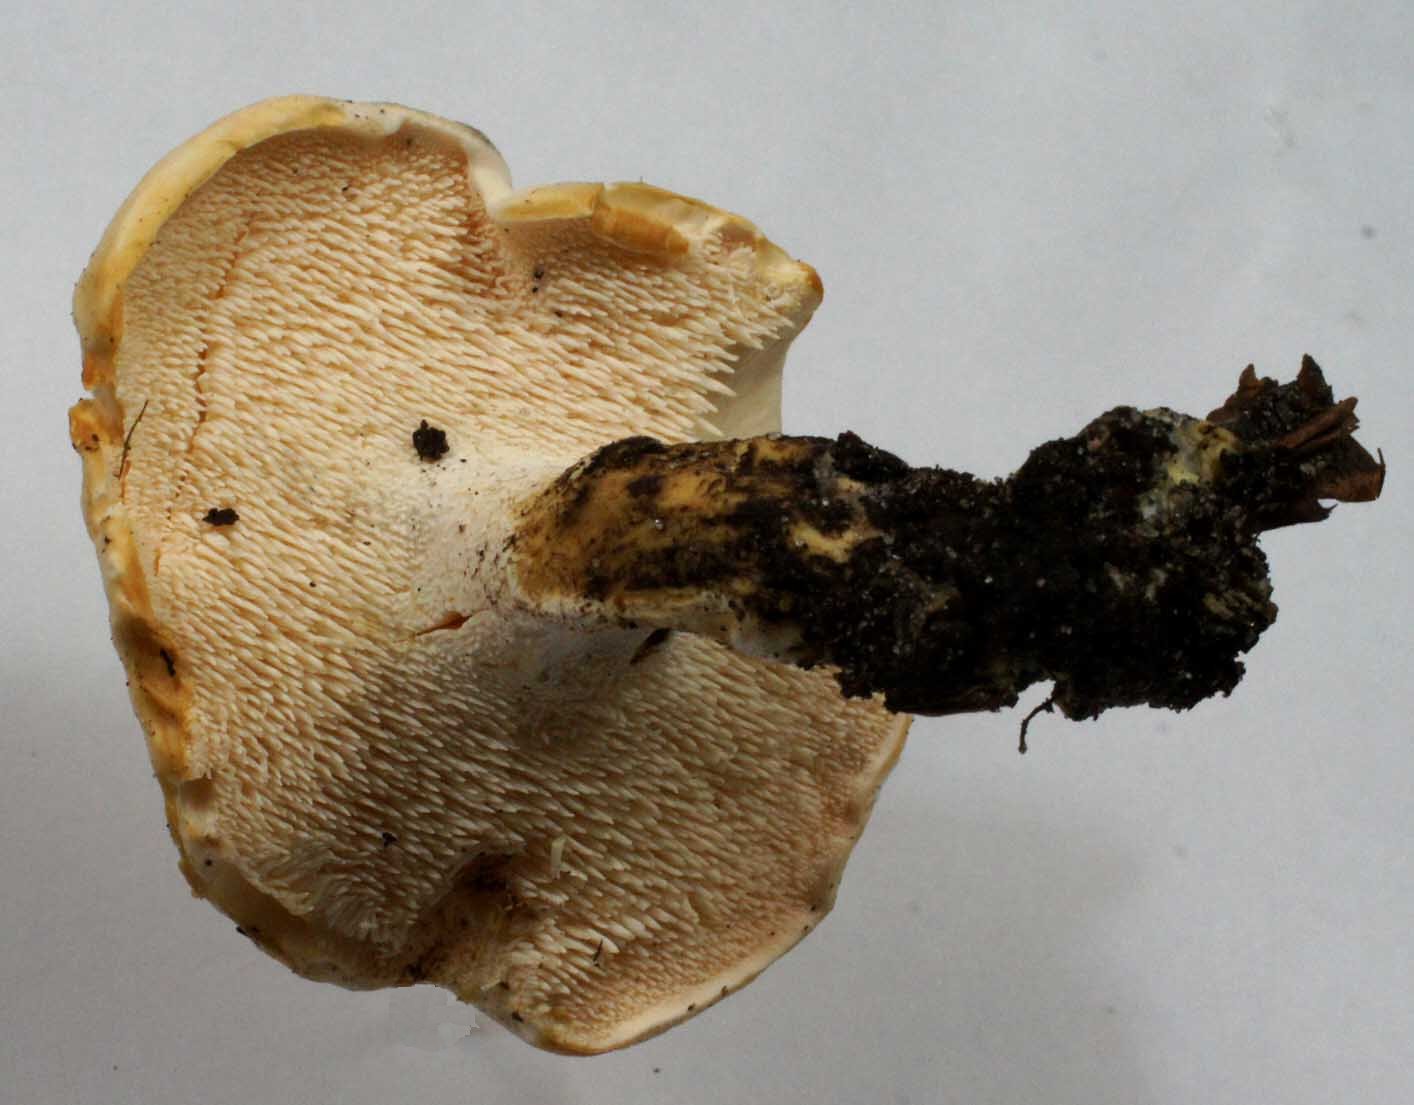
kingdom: Fungi
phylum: Basidiomycota
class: Agaricomycetes
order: Cantharellales
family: Hydnaceae
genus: Hydnum
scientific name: Hydnum repandum
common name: hvid pigsvamp
